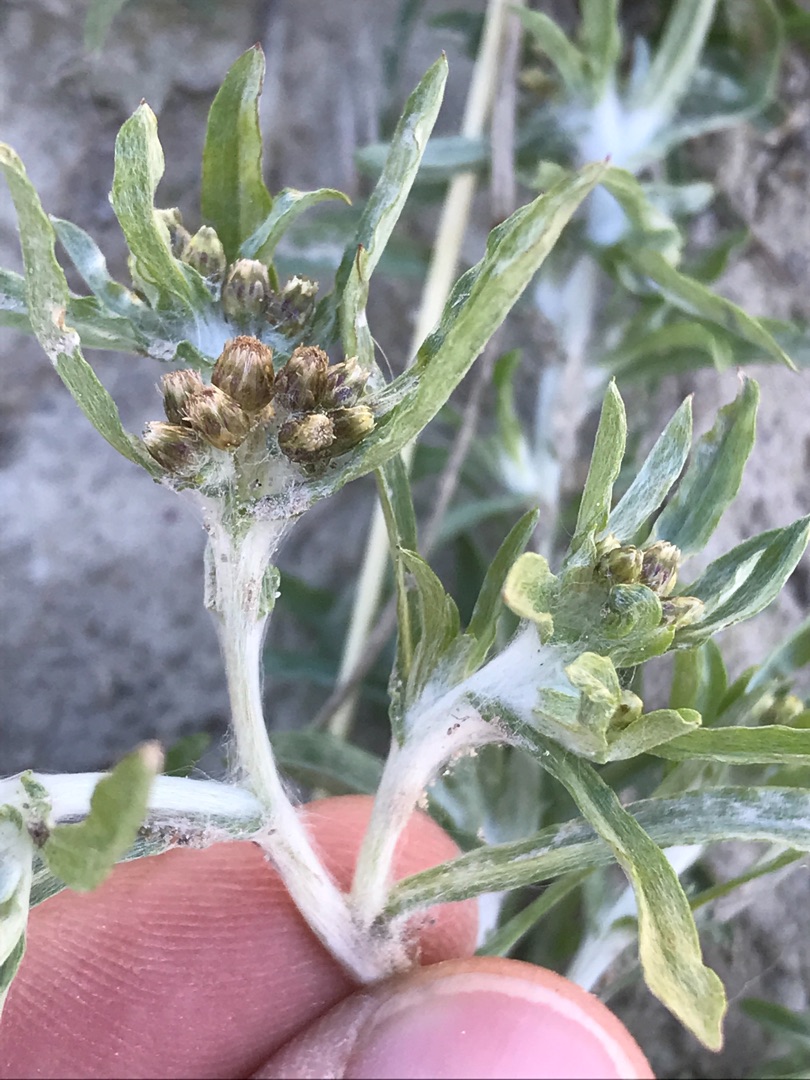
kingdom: Plantae
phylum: Tracheophyta
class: Magnoliopsida
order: Asterales
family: Asteraceae
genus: Gnaphalium
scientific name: Gnaphalium uliginosum
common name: Sump-evighedsblomst
